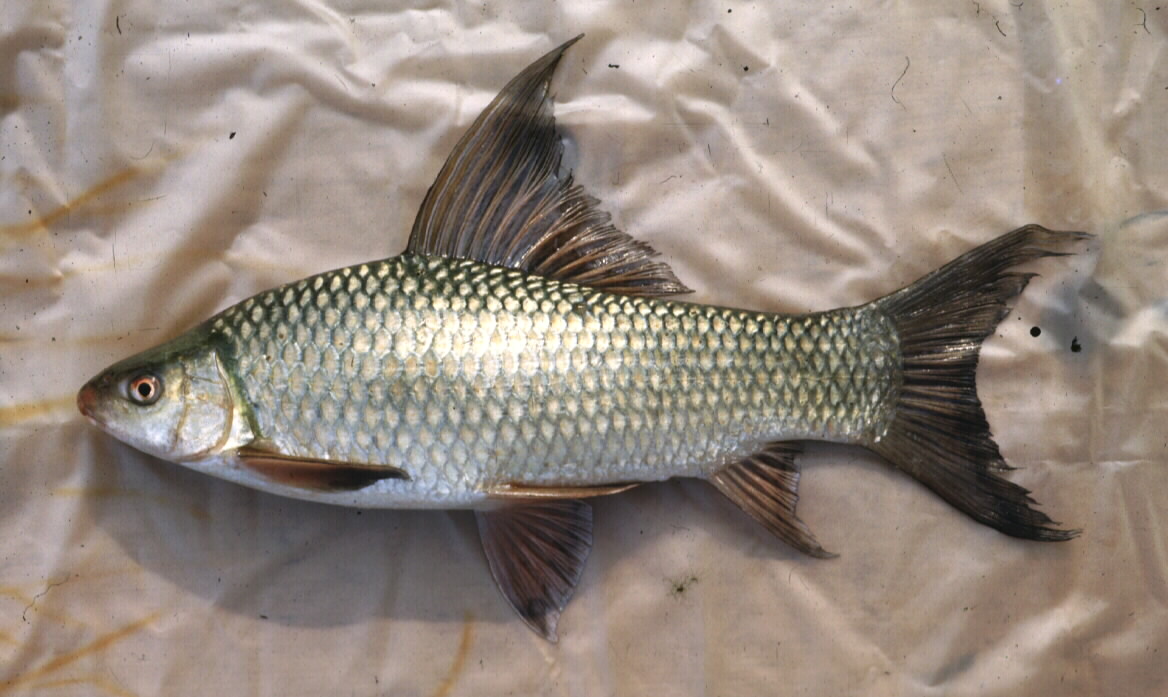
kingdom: Animalia
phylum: Chordata
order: Cypriniformes
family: Cyprinidae
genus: Labeo
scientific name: Labeo altivelis
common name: Hunyani labeo
